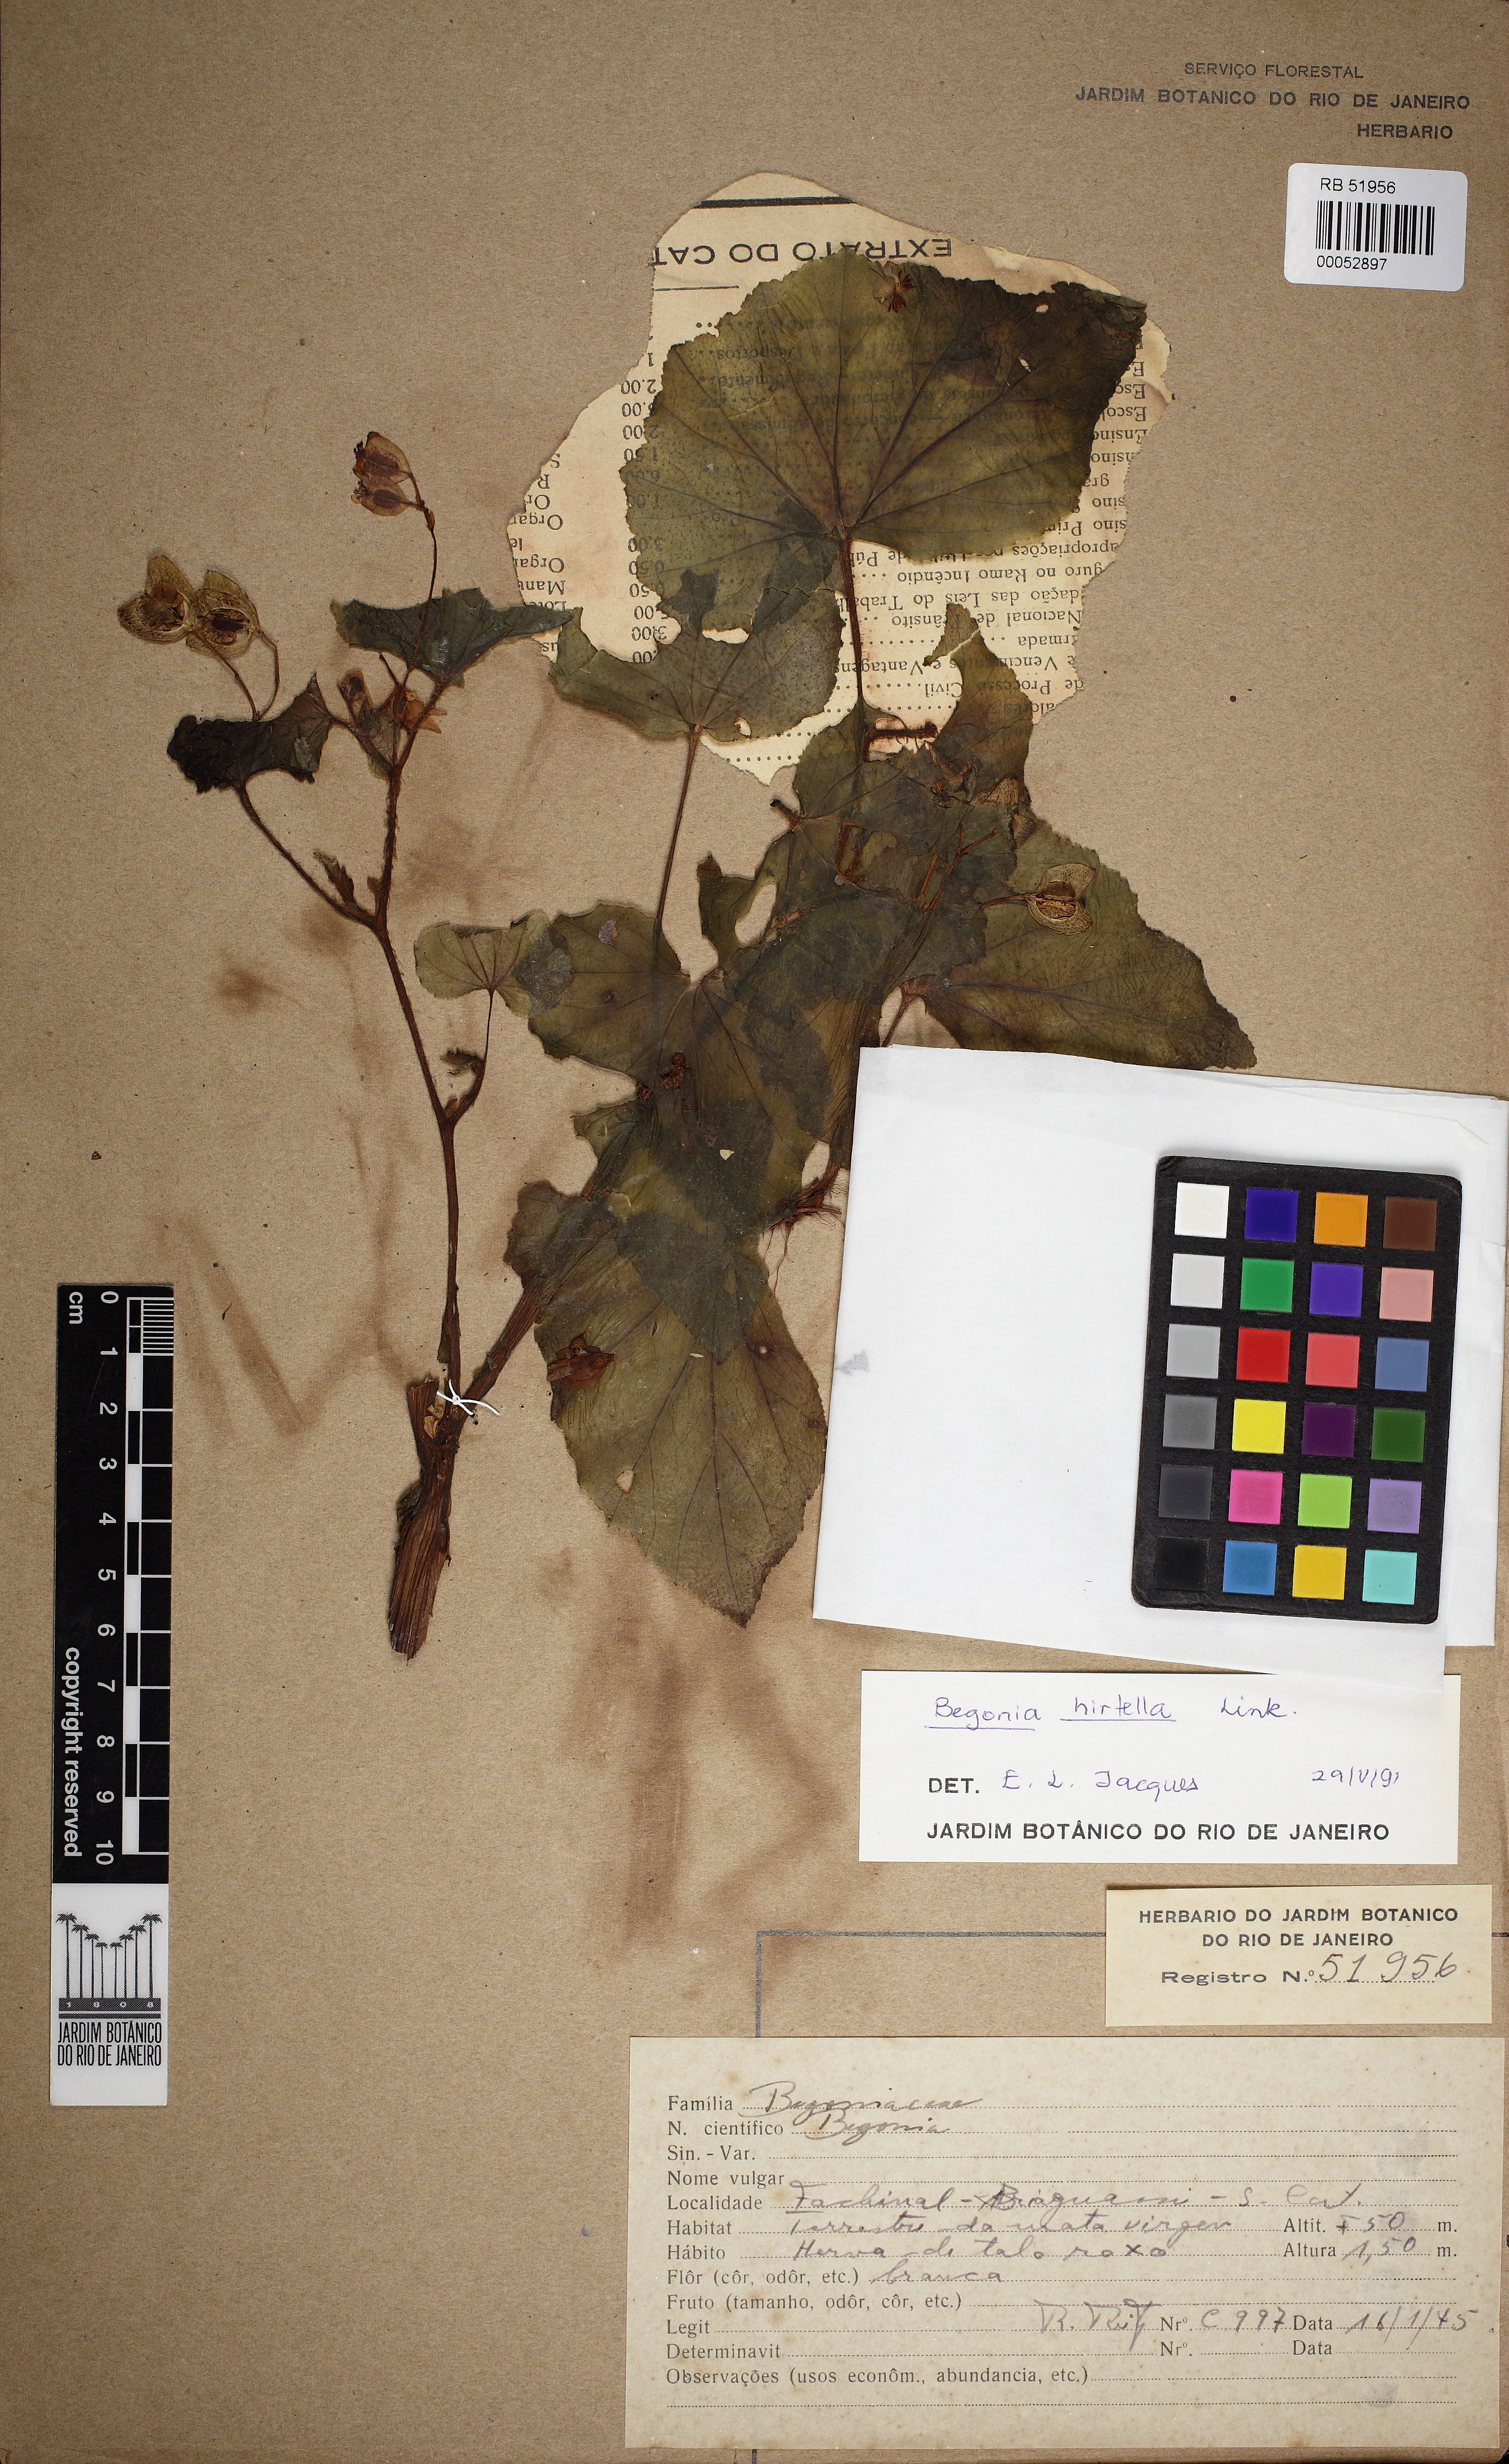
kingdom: Plantae
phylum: Tracheophyta
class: Magnoliopsida
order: Cucurbitales
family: Begoniaceae
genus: Begonia
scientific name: Begonia hirtella
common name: Brazilian begonia
